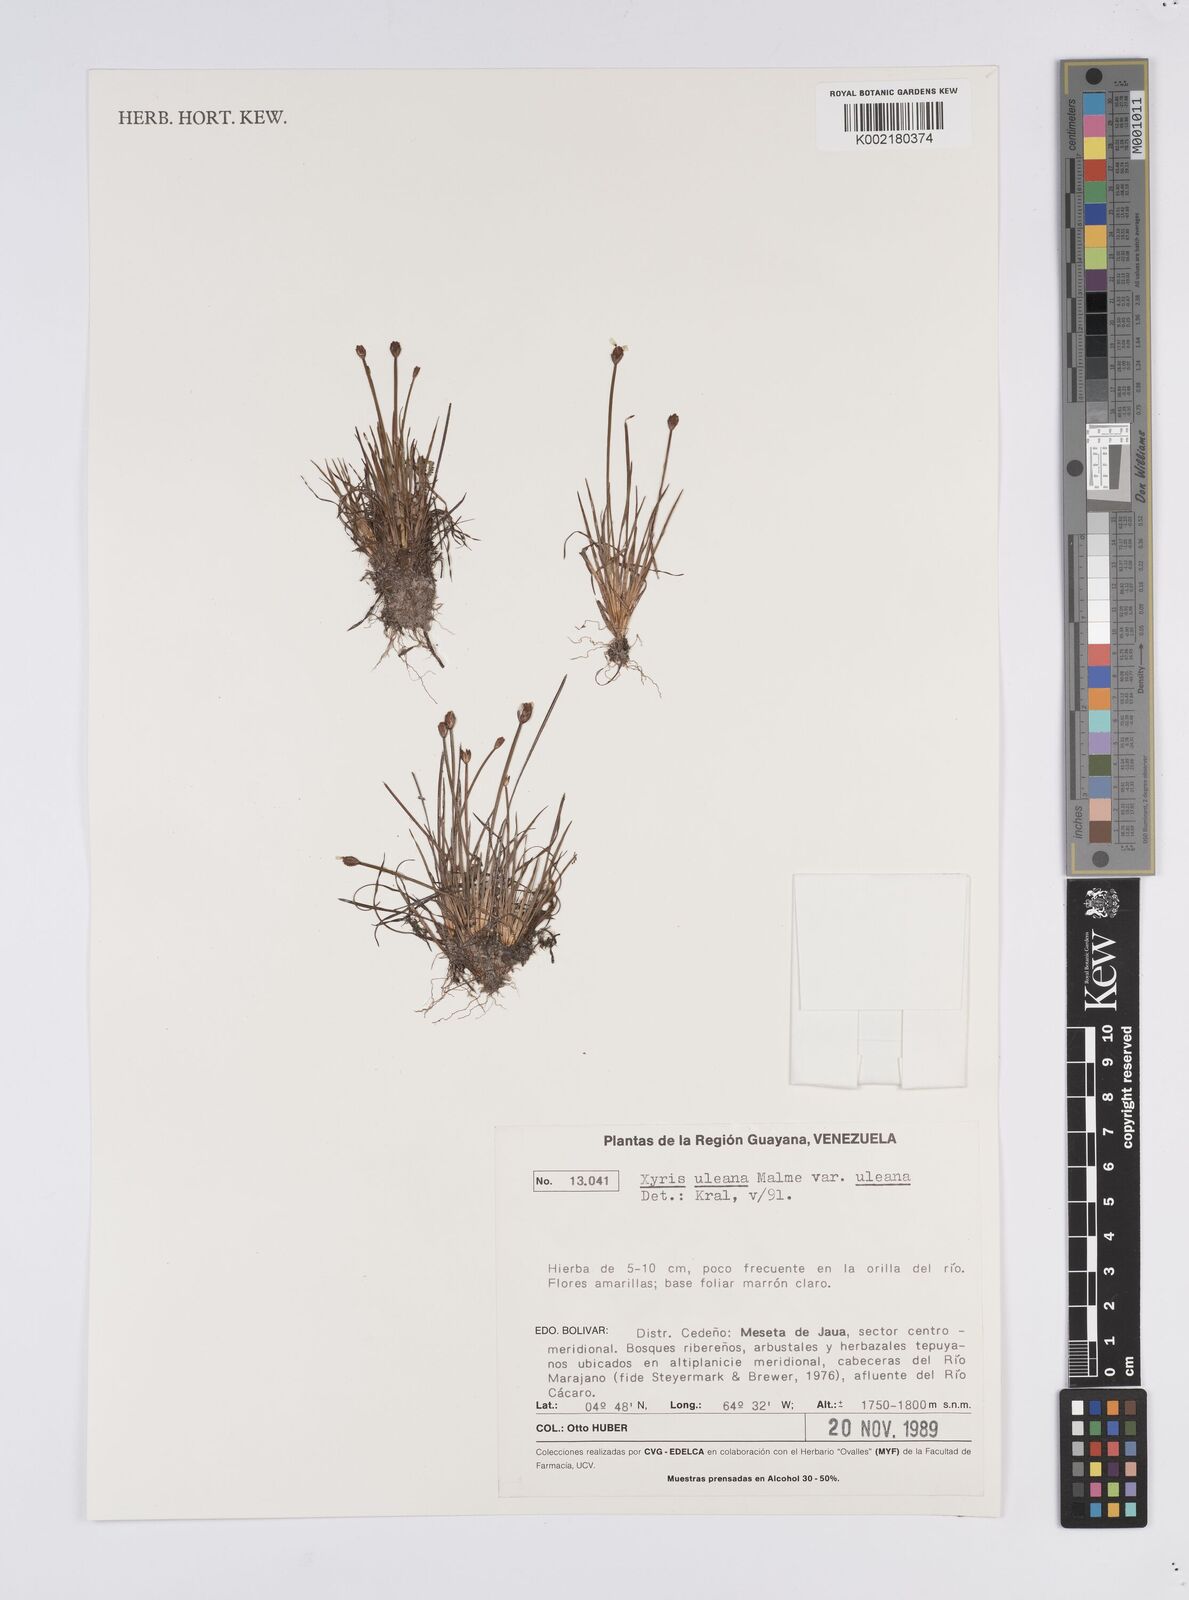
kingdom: Plantae
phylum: Tracheophyta
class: Liliopsida
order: Poales
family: Xyridaceae
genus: Xyris
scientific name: Xyris uleana
